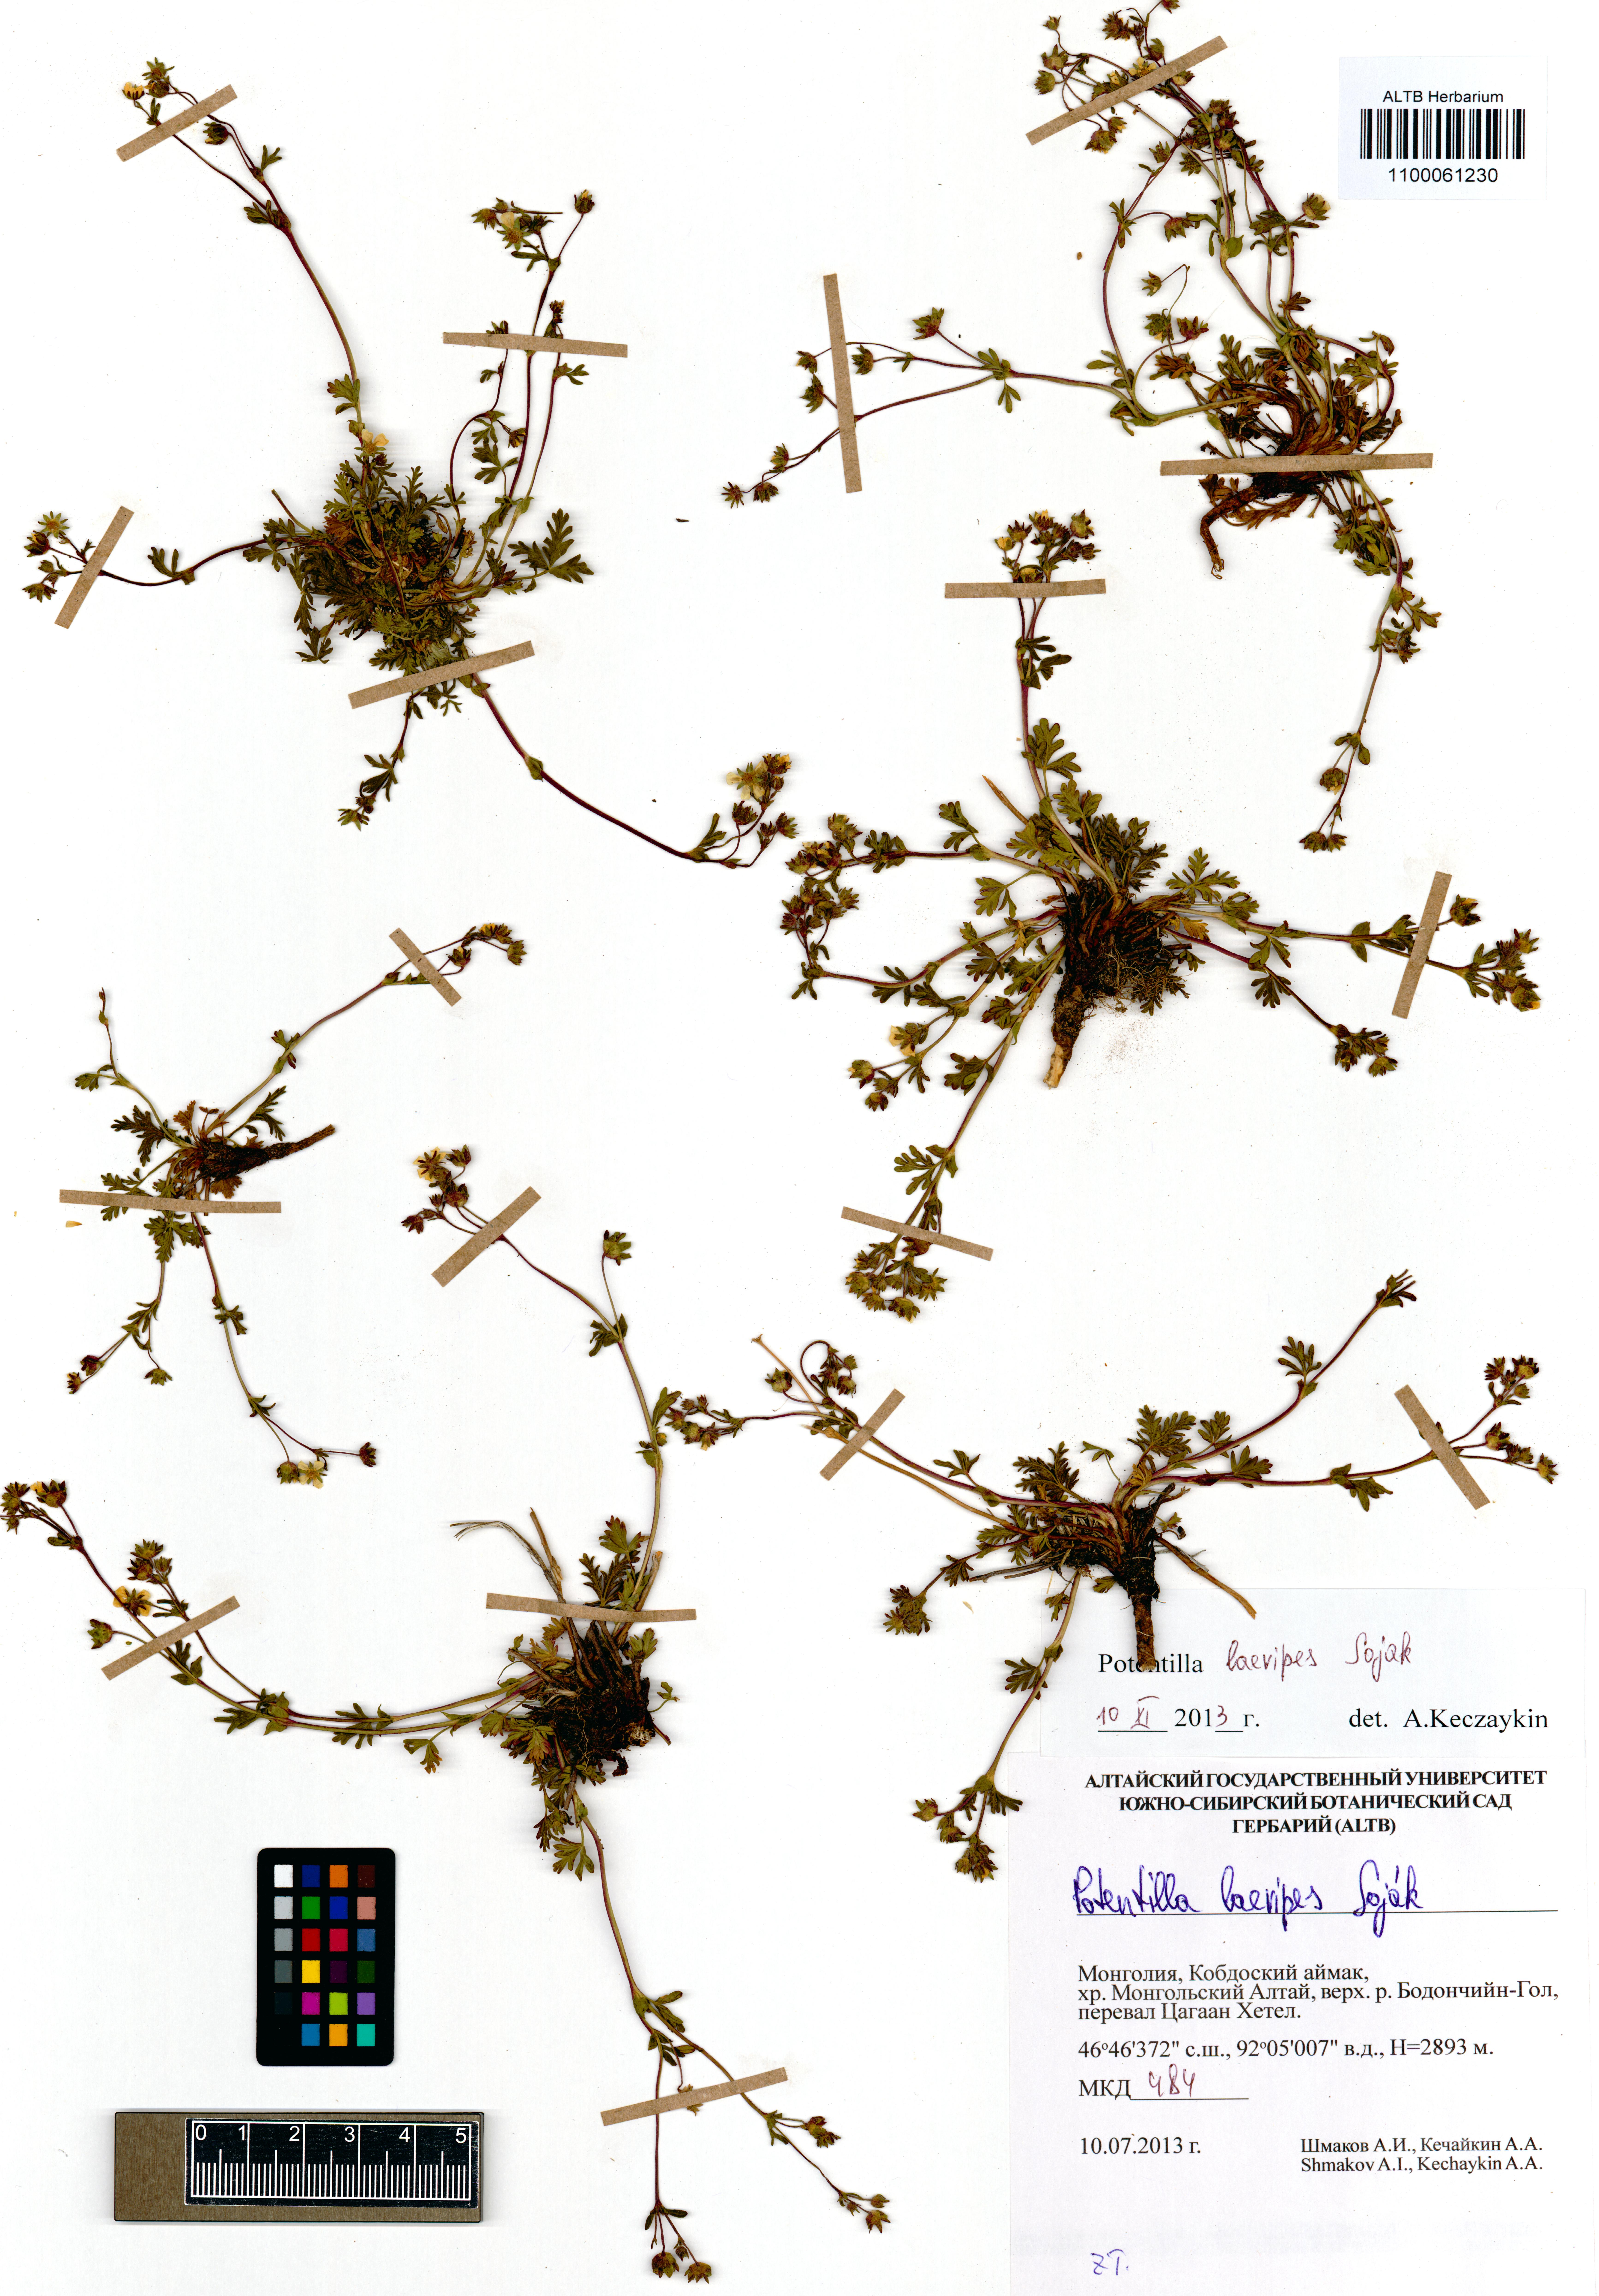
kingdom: Plantae
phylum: Tracheophyta
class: Magnoliopsida
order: Rosales
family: Rosaceae
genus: Potentilla
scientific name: Potentilla laevipes
